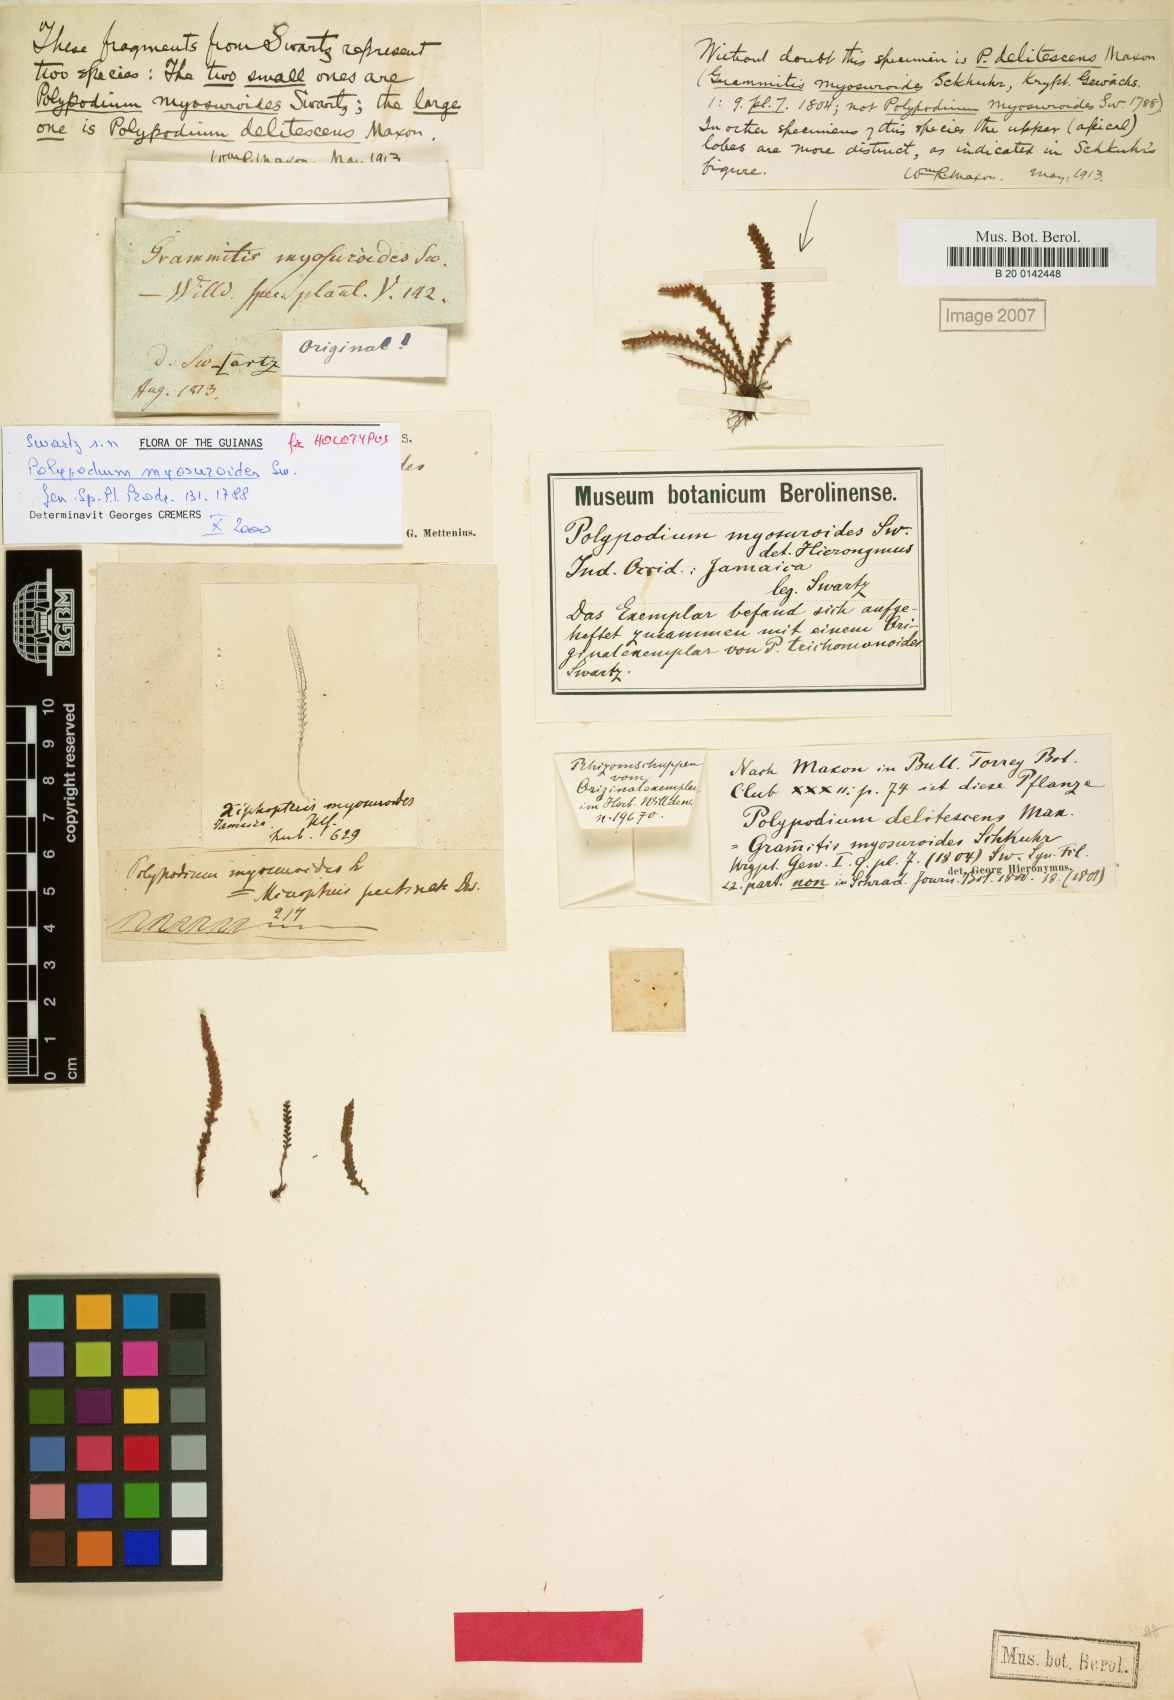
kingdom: Plantae
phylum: Tracheophyta
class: Polypodiopsida
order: Polypodiales
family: Polypodiaceae
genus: Stenogrammitis
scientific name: Stenogrammitis myosuroides
